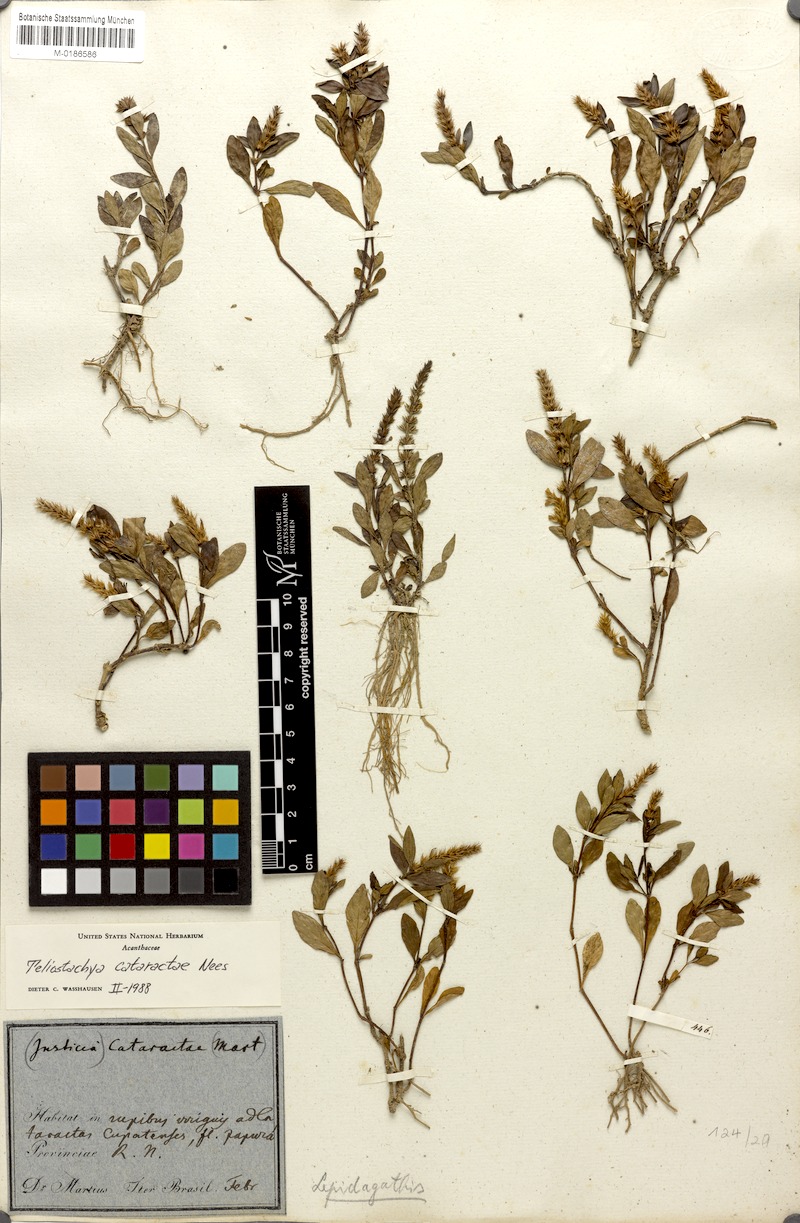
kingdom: Plantae
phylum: Tracheophyta
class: Magnoliopsida
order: Lamiales
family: Acanthaceae
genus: Lepidagathis
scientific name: Lepidagathis cataractae
